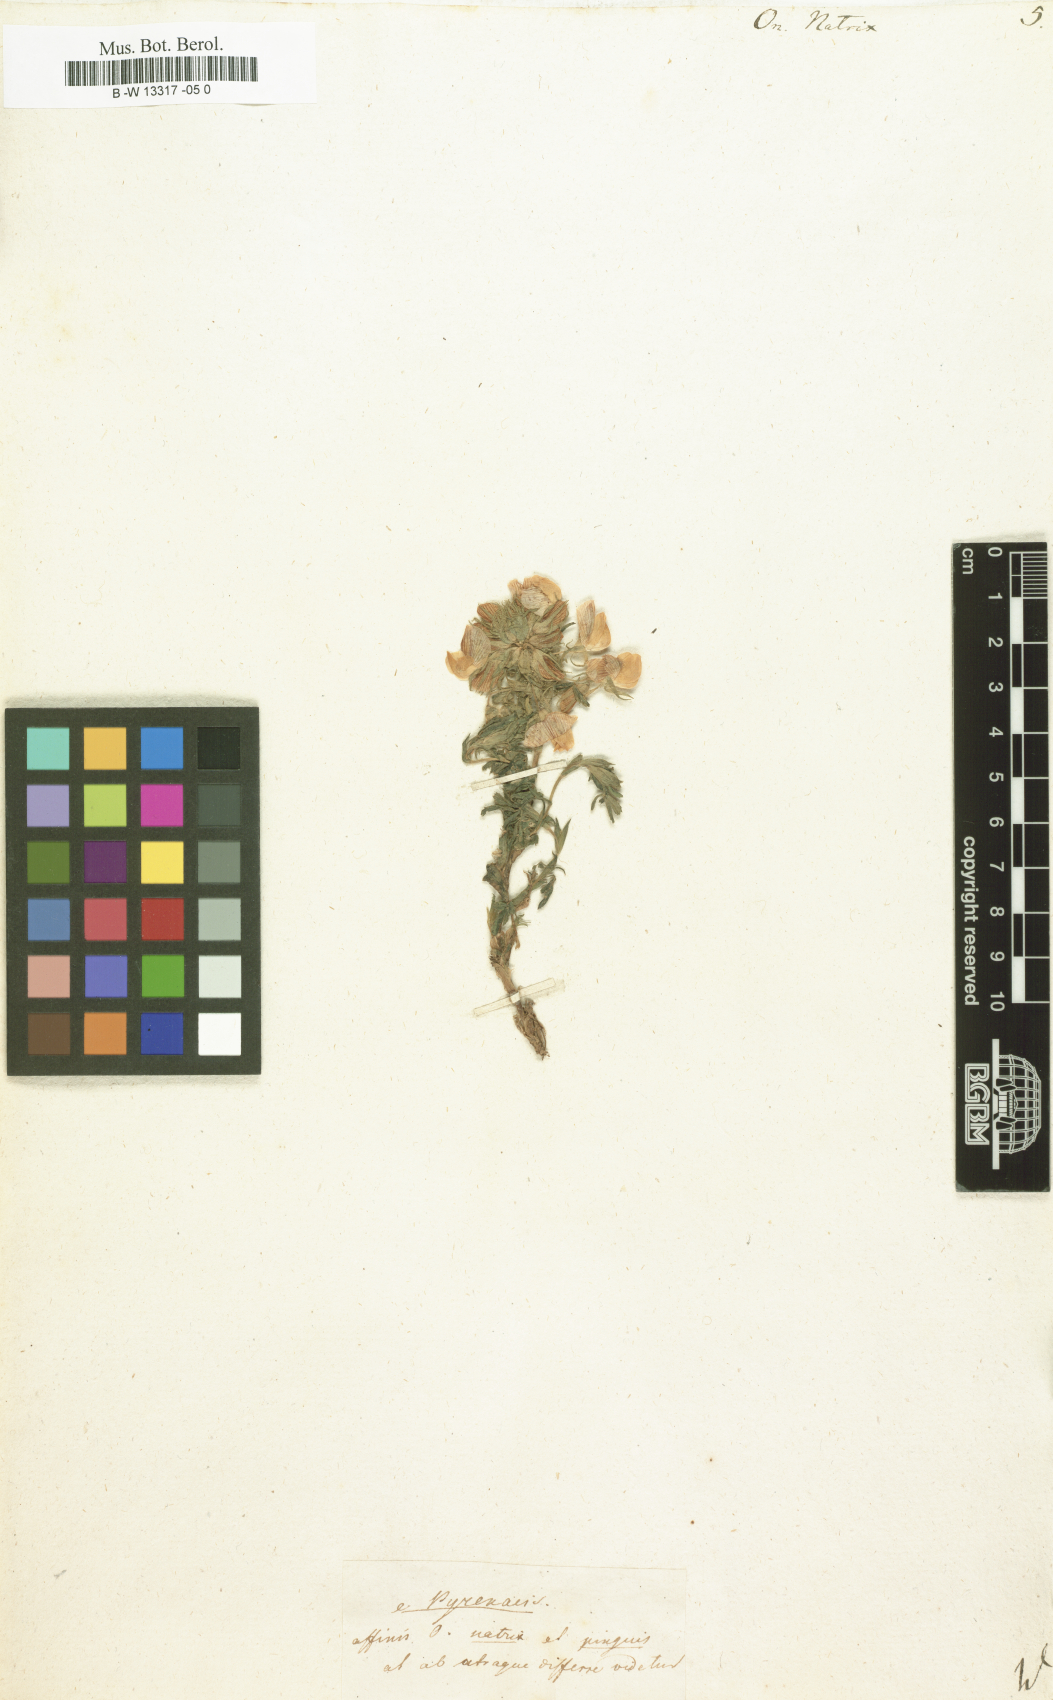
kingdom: Plantae
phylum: Tracheophyta
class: Magnoliopsida
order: Fabales
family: Fabaceae
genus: Ononis
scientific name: Ononis natrix
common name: Yellow restharrow
